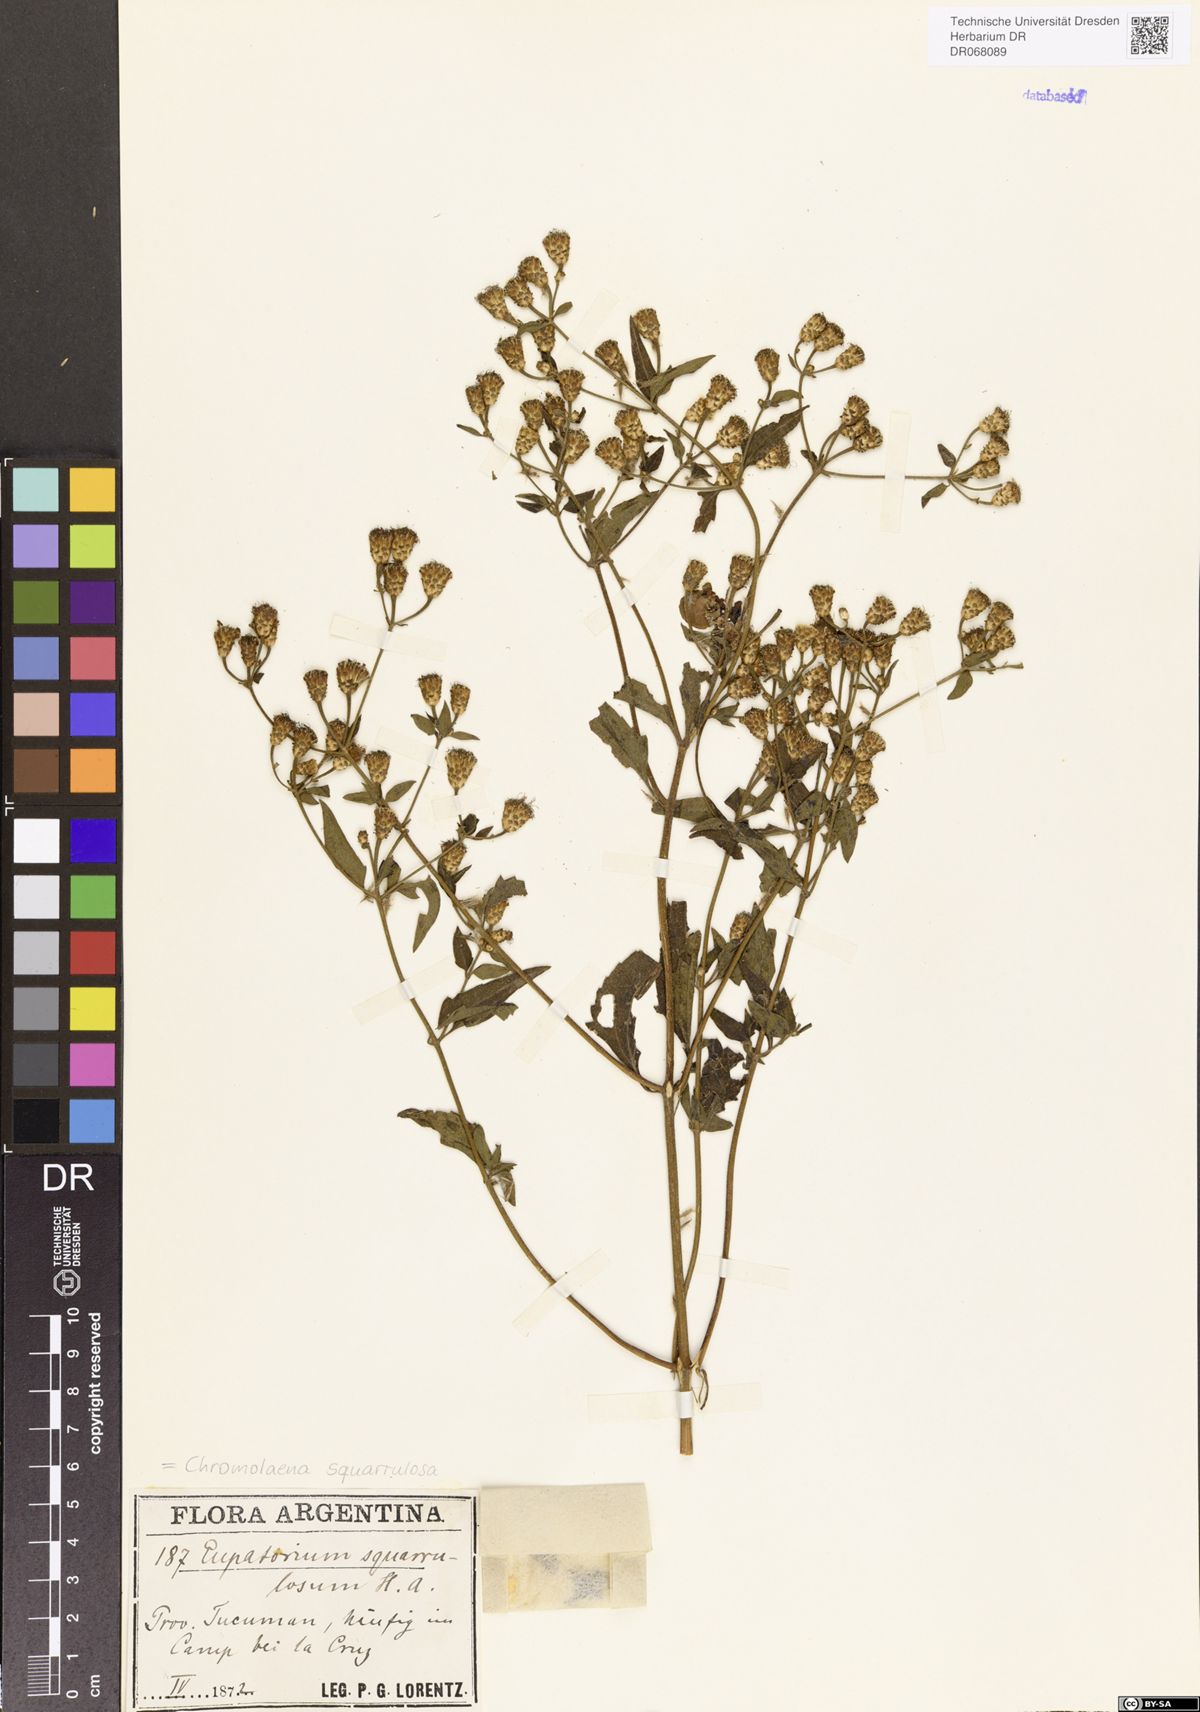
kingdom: Plantae
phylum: Tracheophyta
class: Magnoliopsida
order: Asterales
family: Asteraceae
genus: Chromolaena
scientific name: Chromolaena squarrosoramosa
